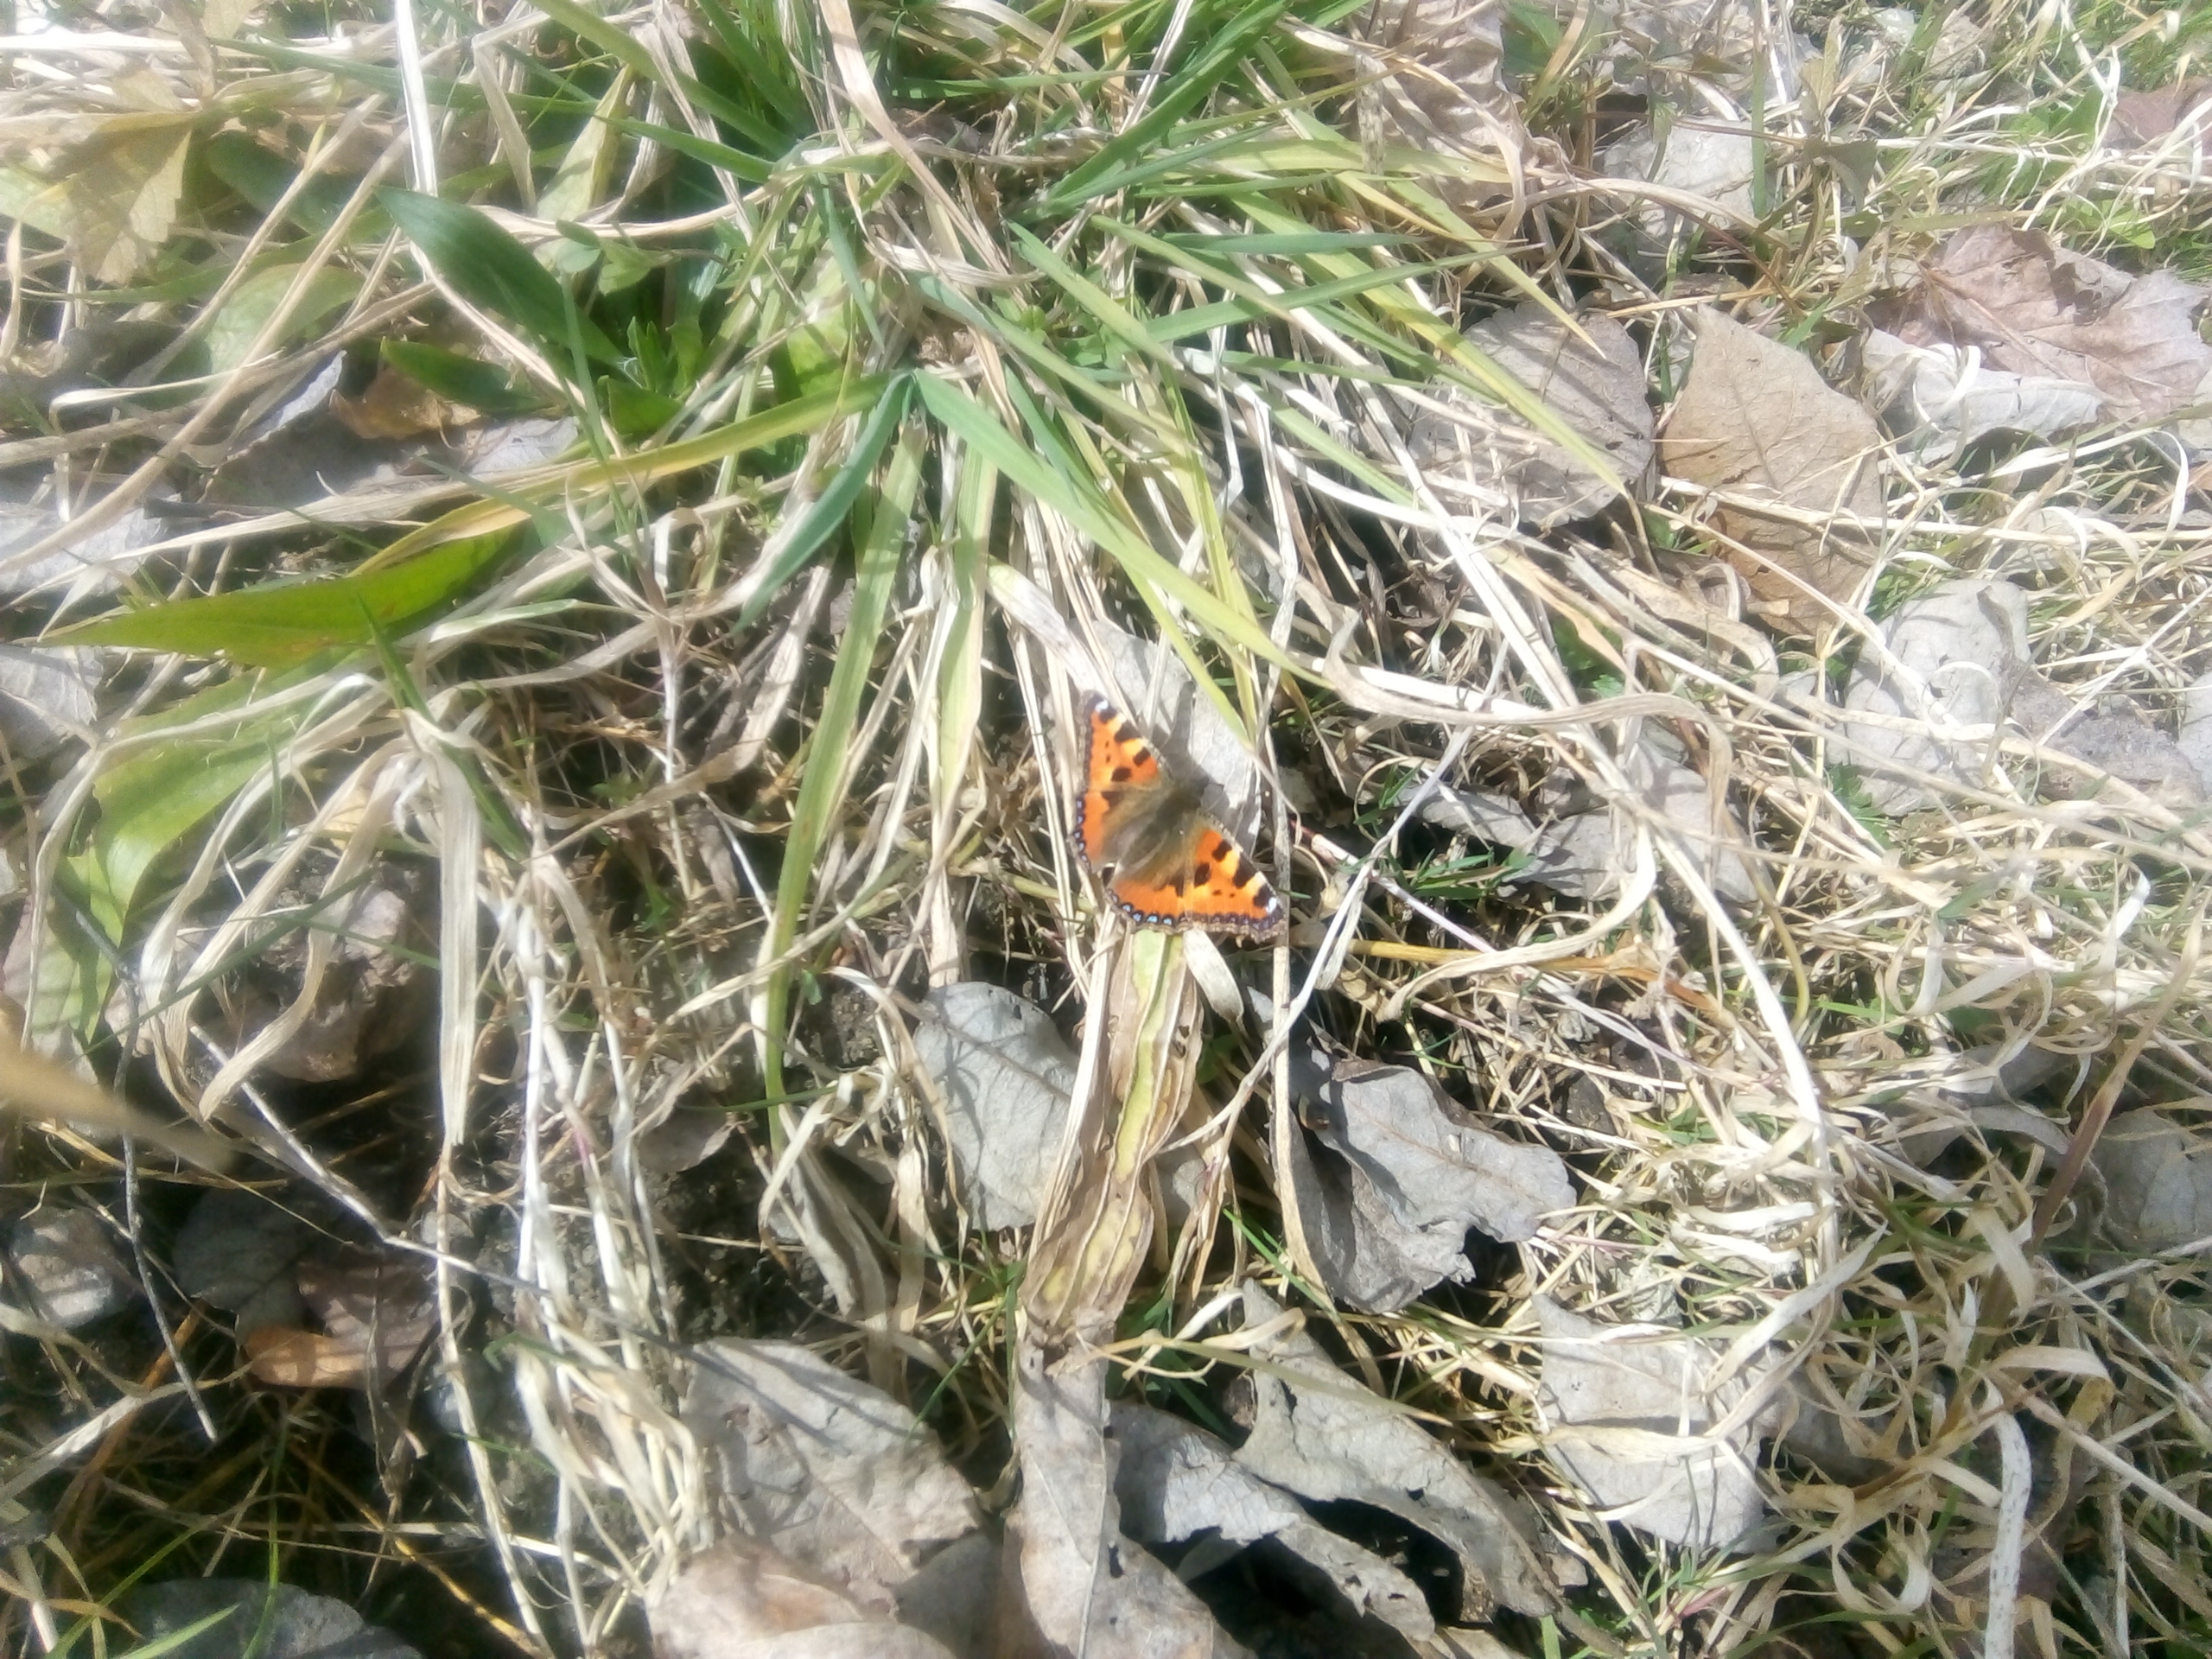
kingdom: Animalia
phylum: Arthropoda
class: Insecta
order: Lepidoptera
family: Nymphalidae
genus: Aglais
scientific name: Aglais urticae
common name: Nældens takvinge
